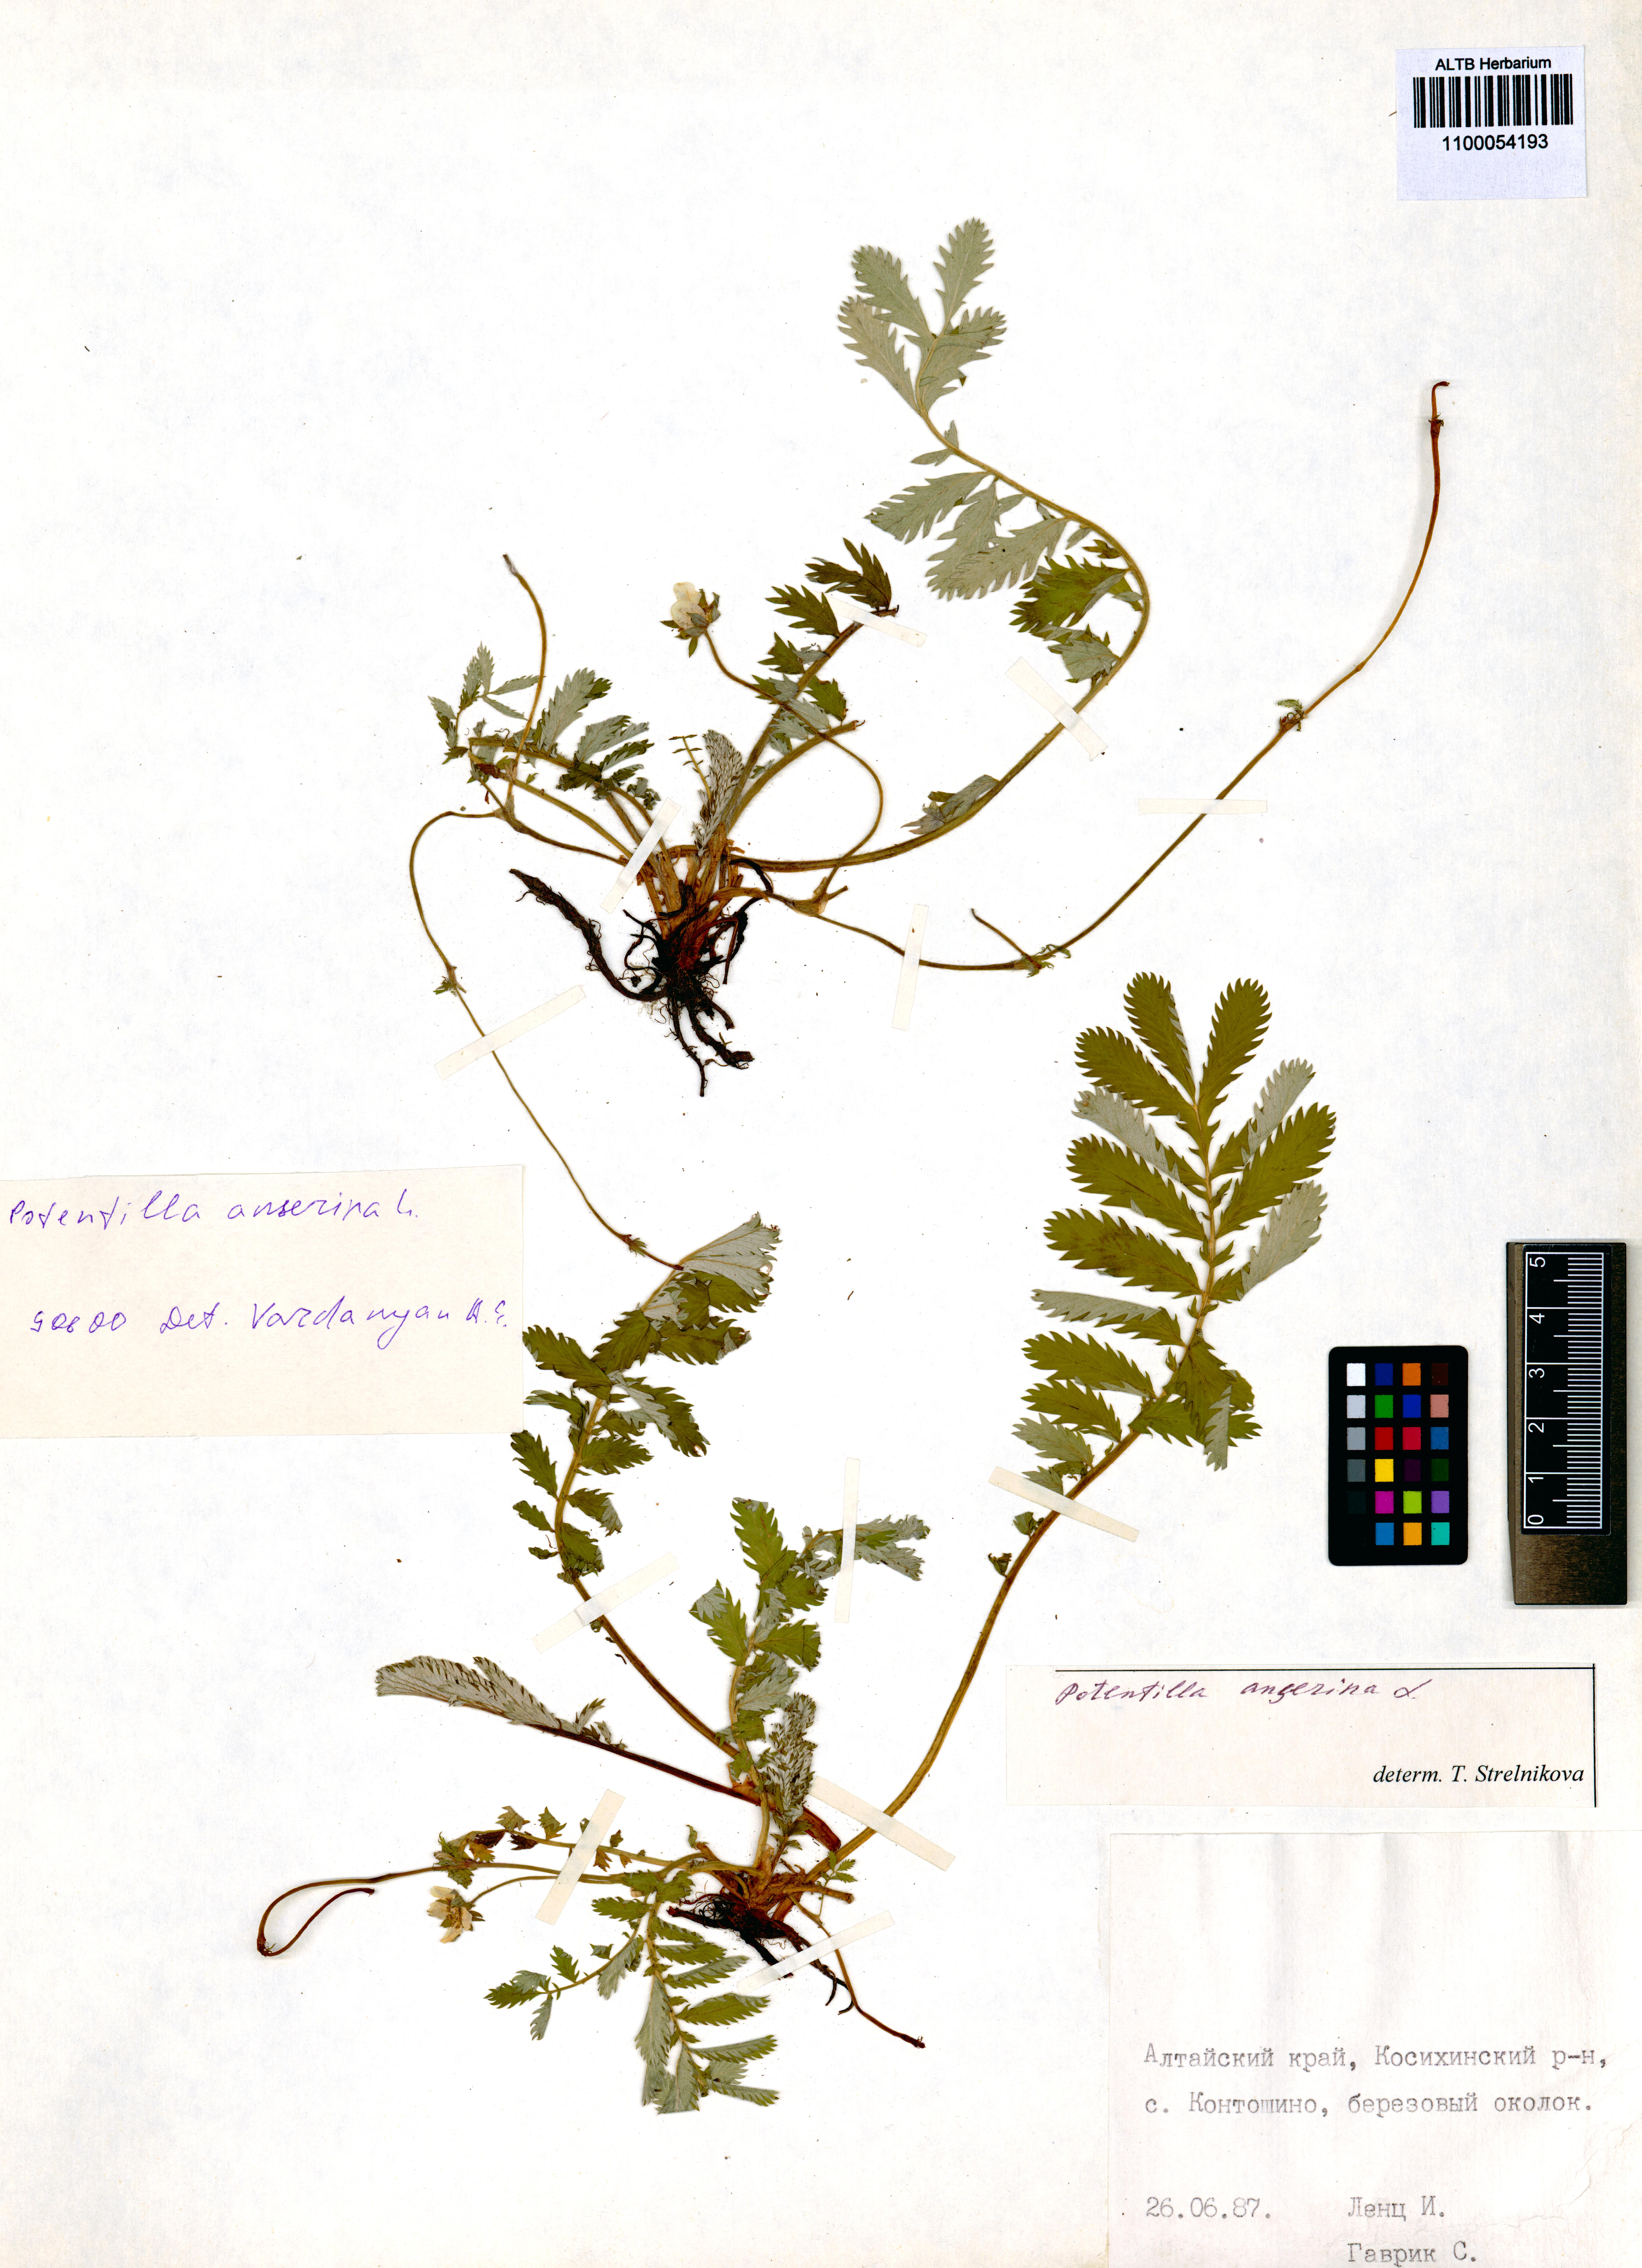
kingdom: Plantae
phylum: Tracheophyta
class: Magnoliopsida
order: Rosales
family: Rosaceae
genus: Argentina
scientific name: Argentina anserina
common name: Common silverweed
